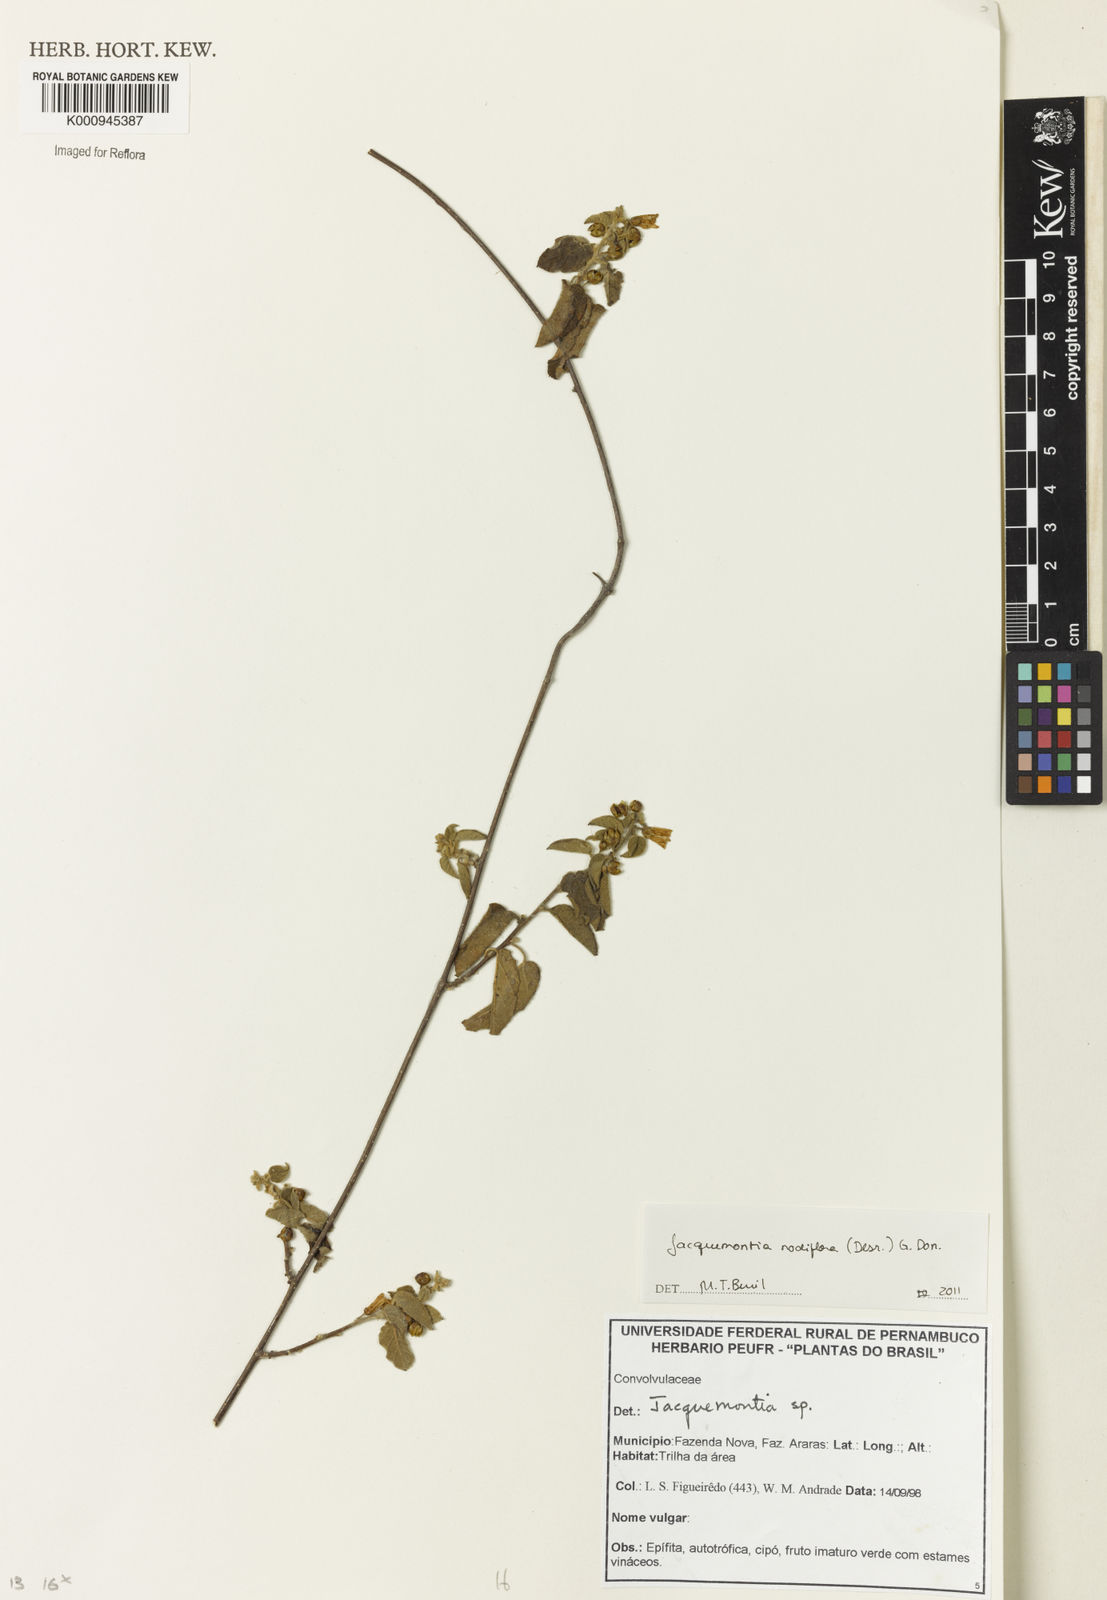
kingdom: Plantae
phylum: Tracheophyta
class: Magnoliopsida
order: Solanales
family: Convolvulaceae
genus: Jacquemontia
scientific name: Jacquemontia nodiflora
